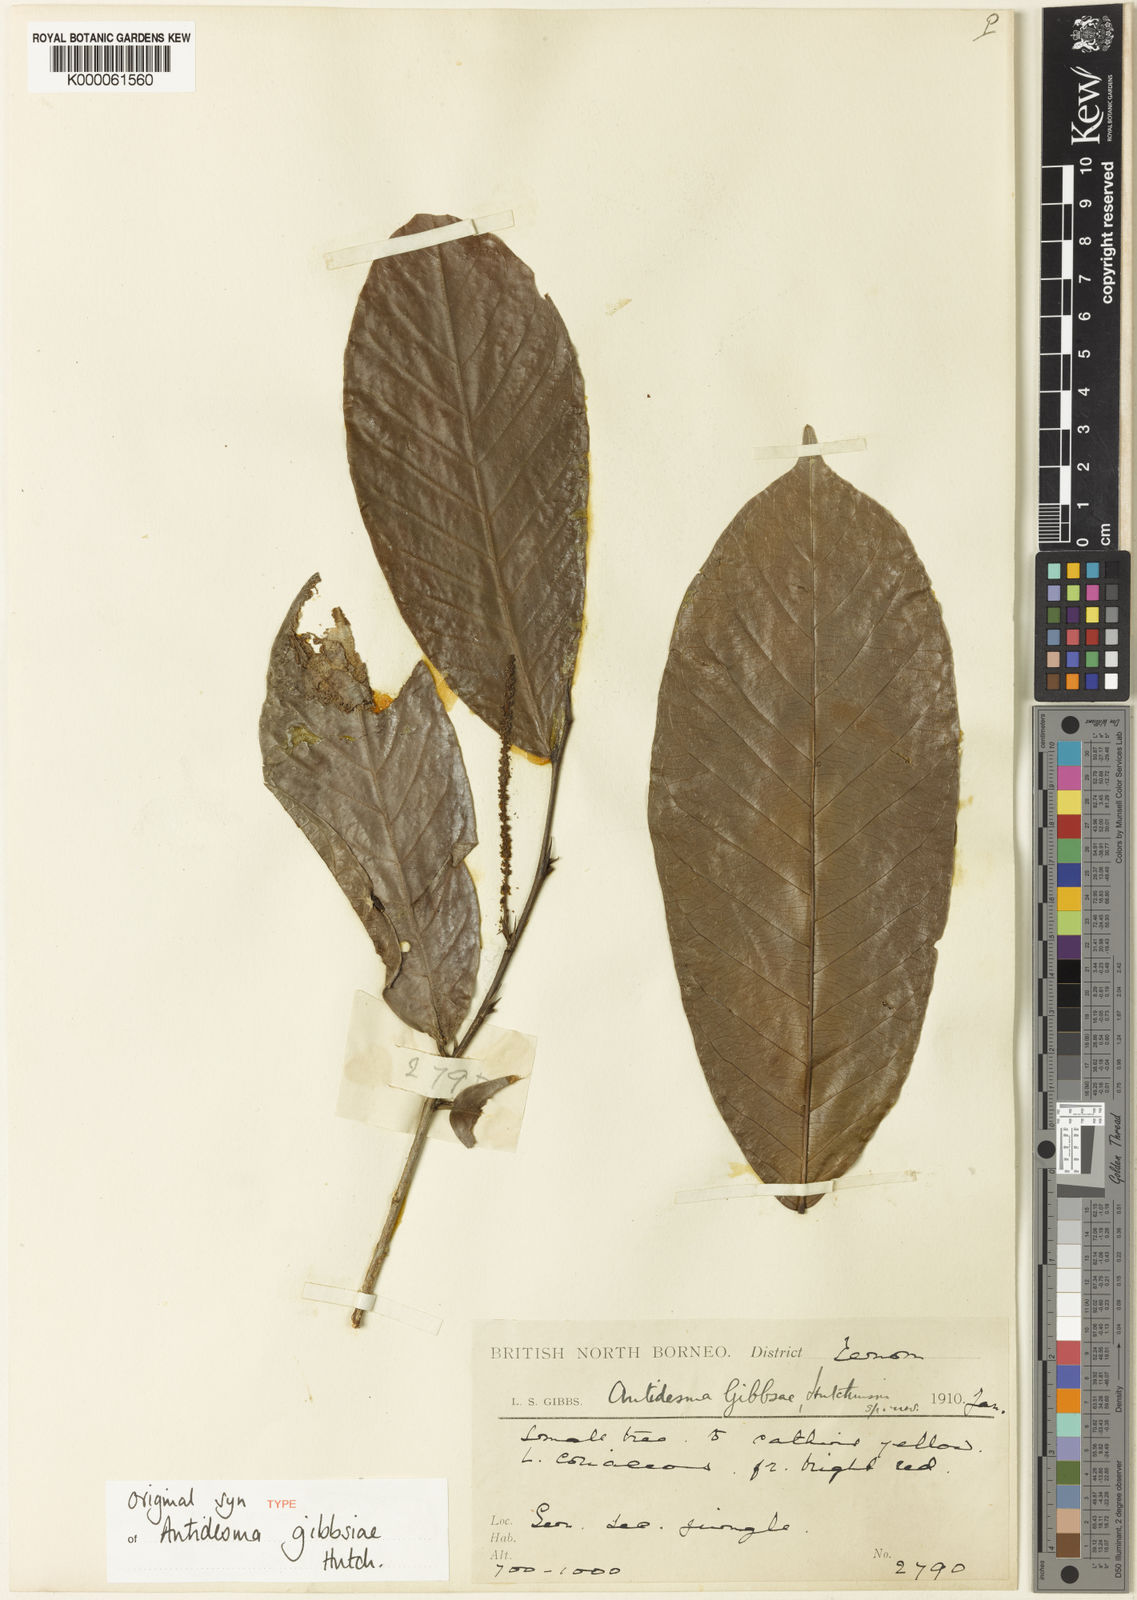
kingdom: Plantae
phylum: Tracheophyta
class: Magnoliopsida
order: Malpighiales
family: Phyllanthaceae
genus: Antidesma
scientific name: Antidesma tomentosum
